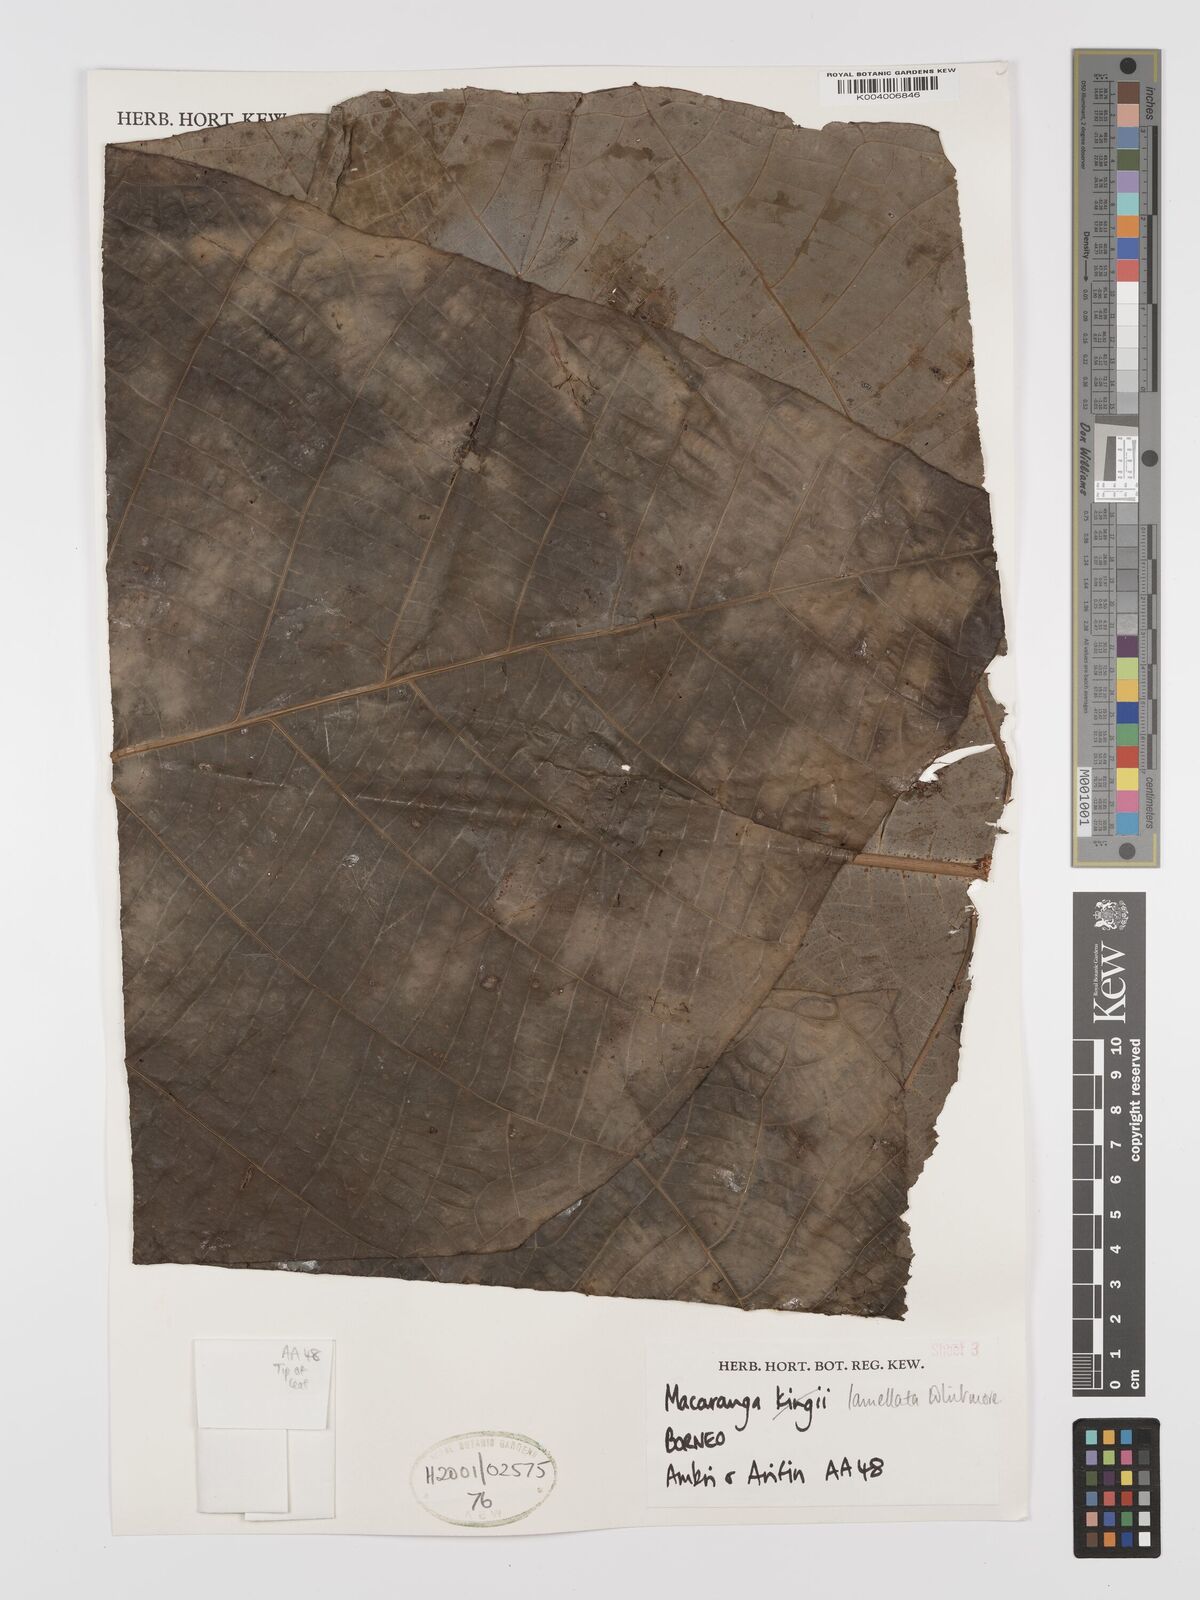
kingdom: Plantae
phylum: Tracheophyta
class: Magnoliopsida
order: Malpighiales
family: Euphorbiaceae
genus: Macaranga
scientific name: Macaranga lamellata
